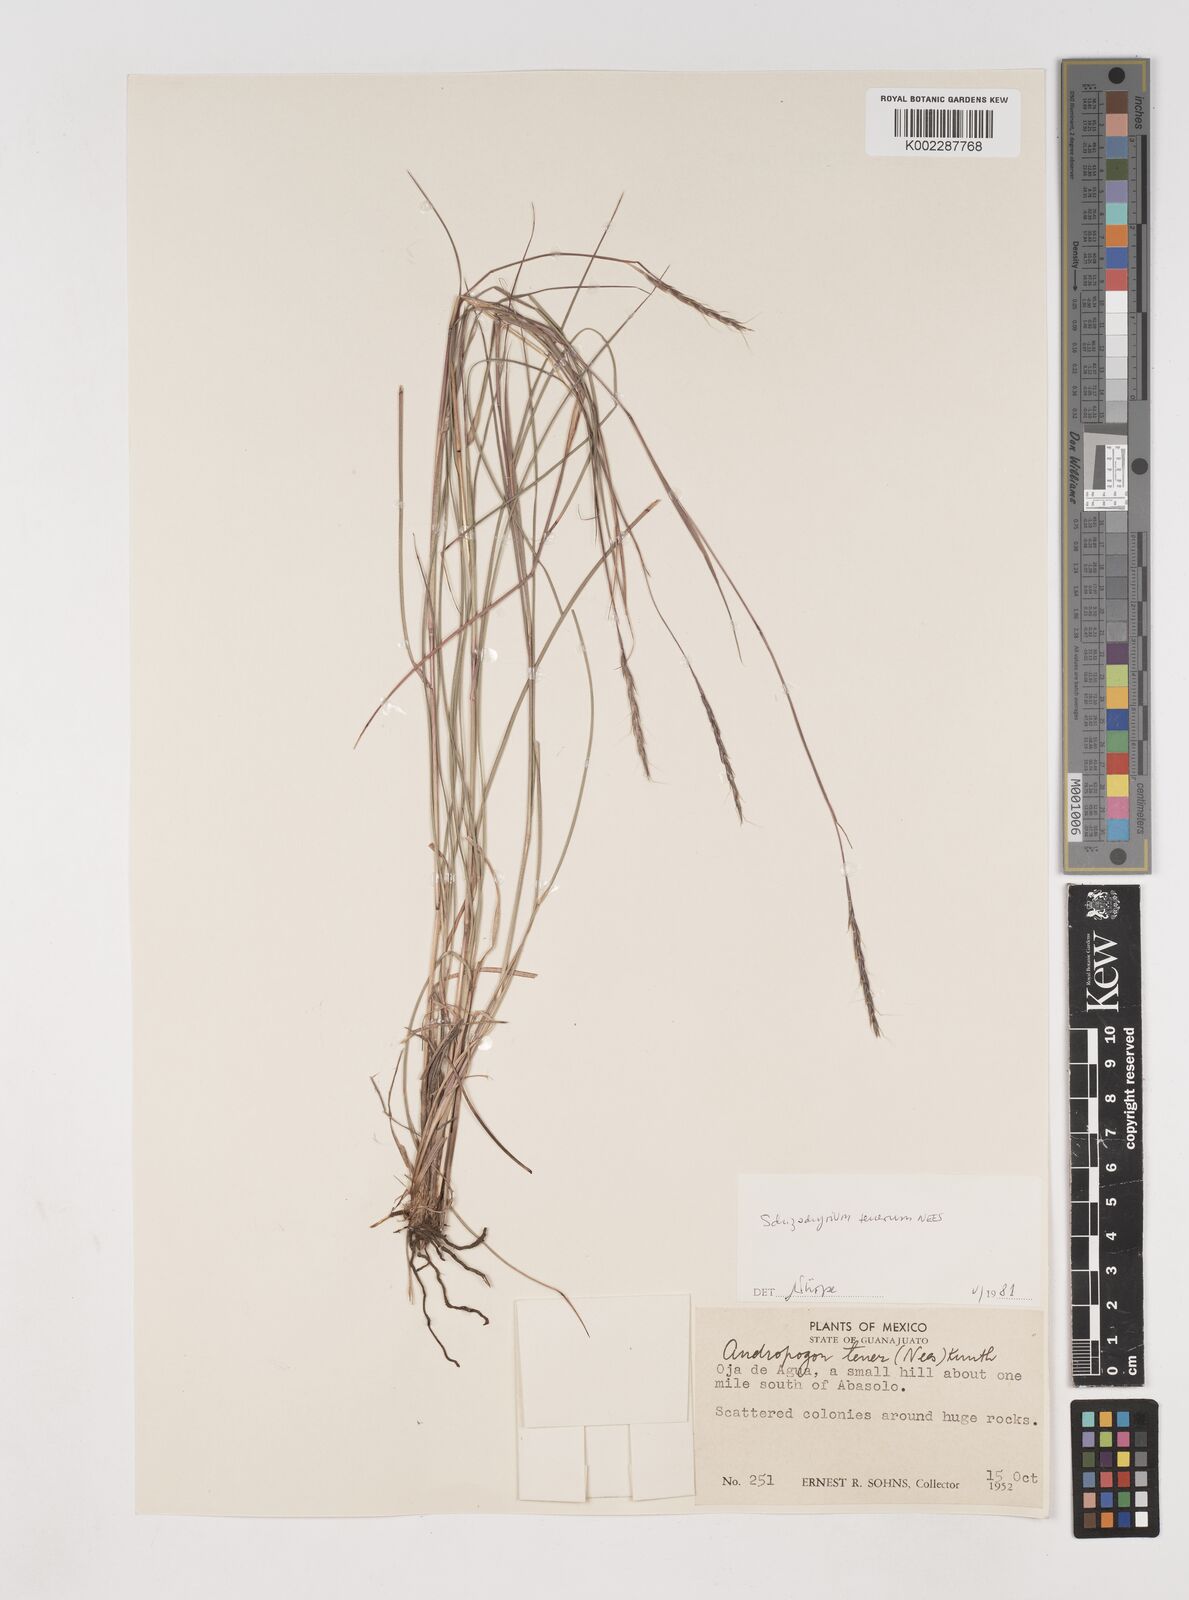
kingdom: Plantae
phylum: Tracheophyta
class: Liliopsida
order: Poales
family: Poaceae
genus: Andropogon
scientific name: Andropogon tener
